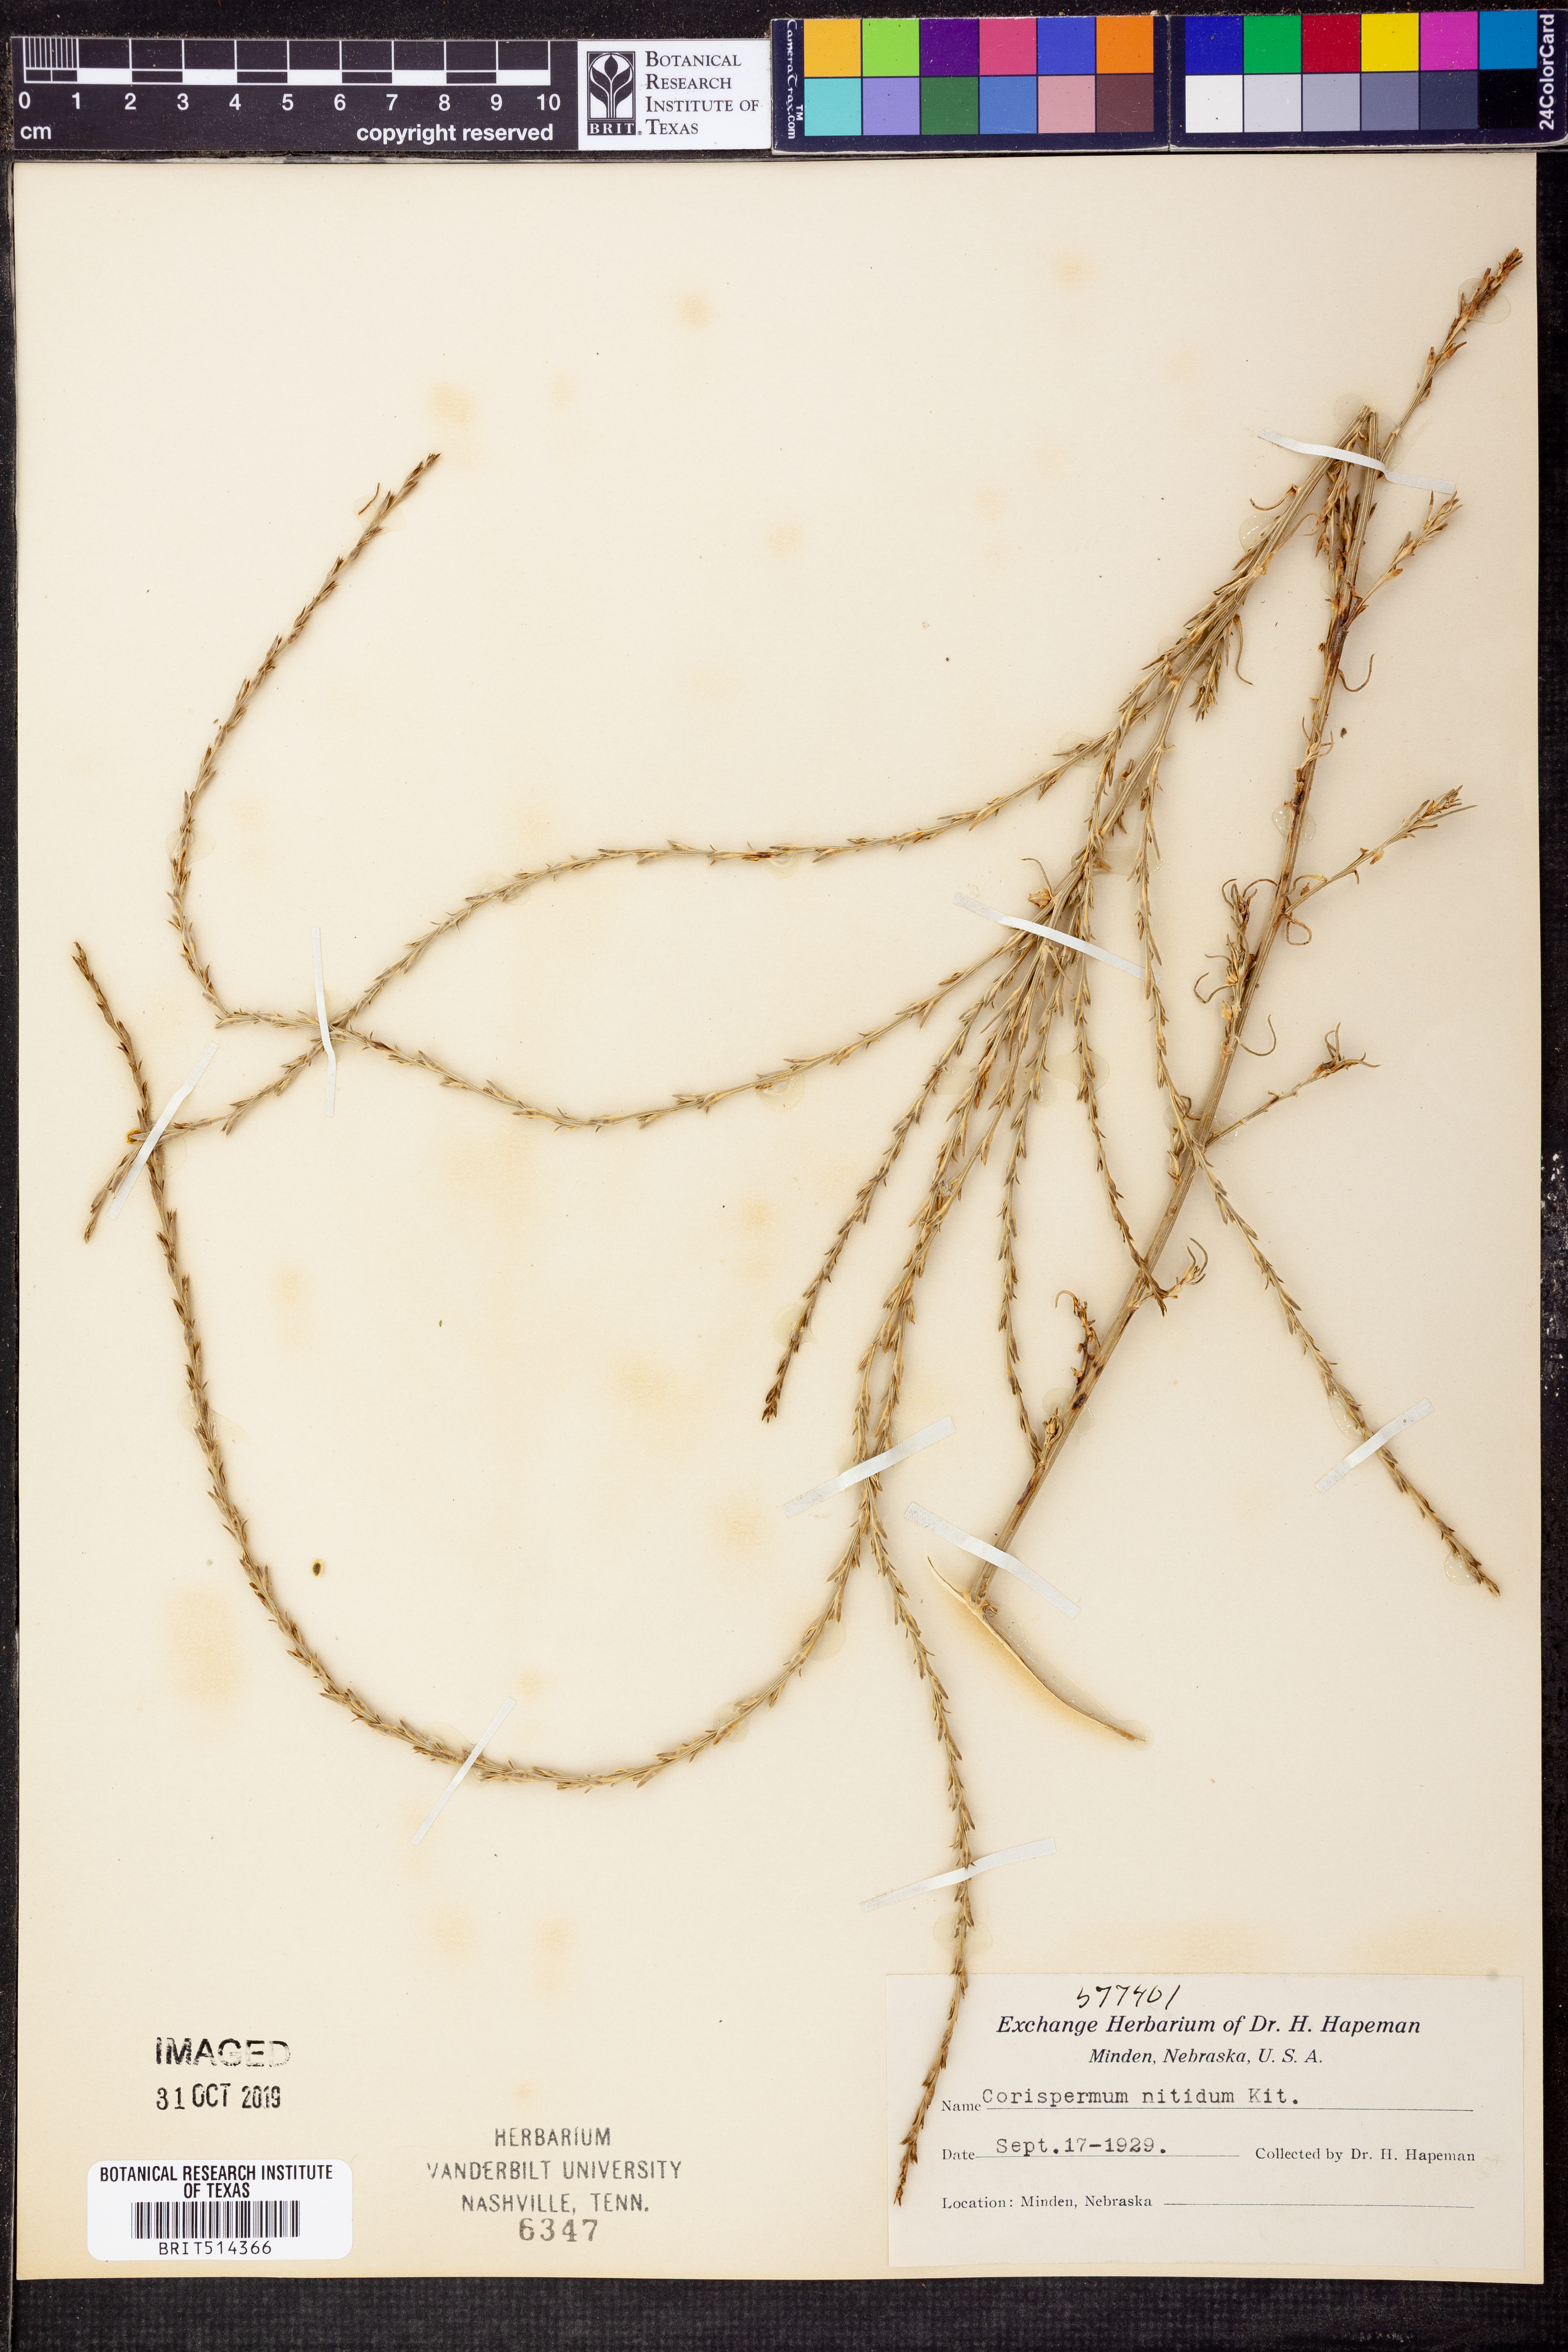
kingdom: Plantae
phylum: Tracheophyta
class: Magnoliopsida
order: Caryophyllales
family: Amaranthaceae
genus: Corispermum
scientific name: Corispermum nitidum
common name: Bugseed
